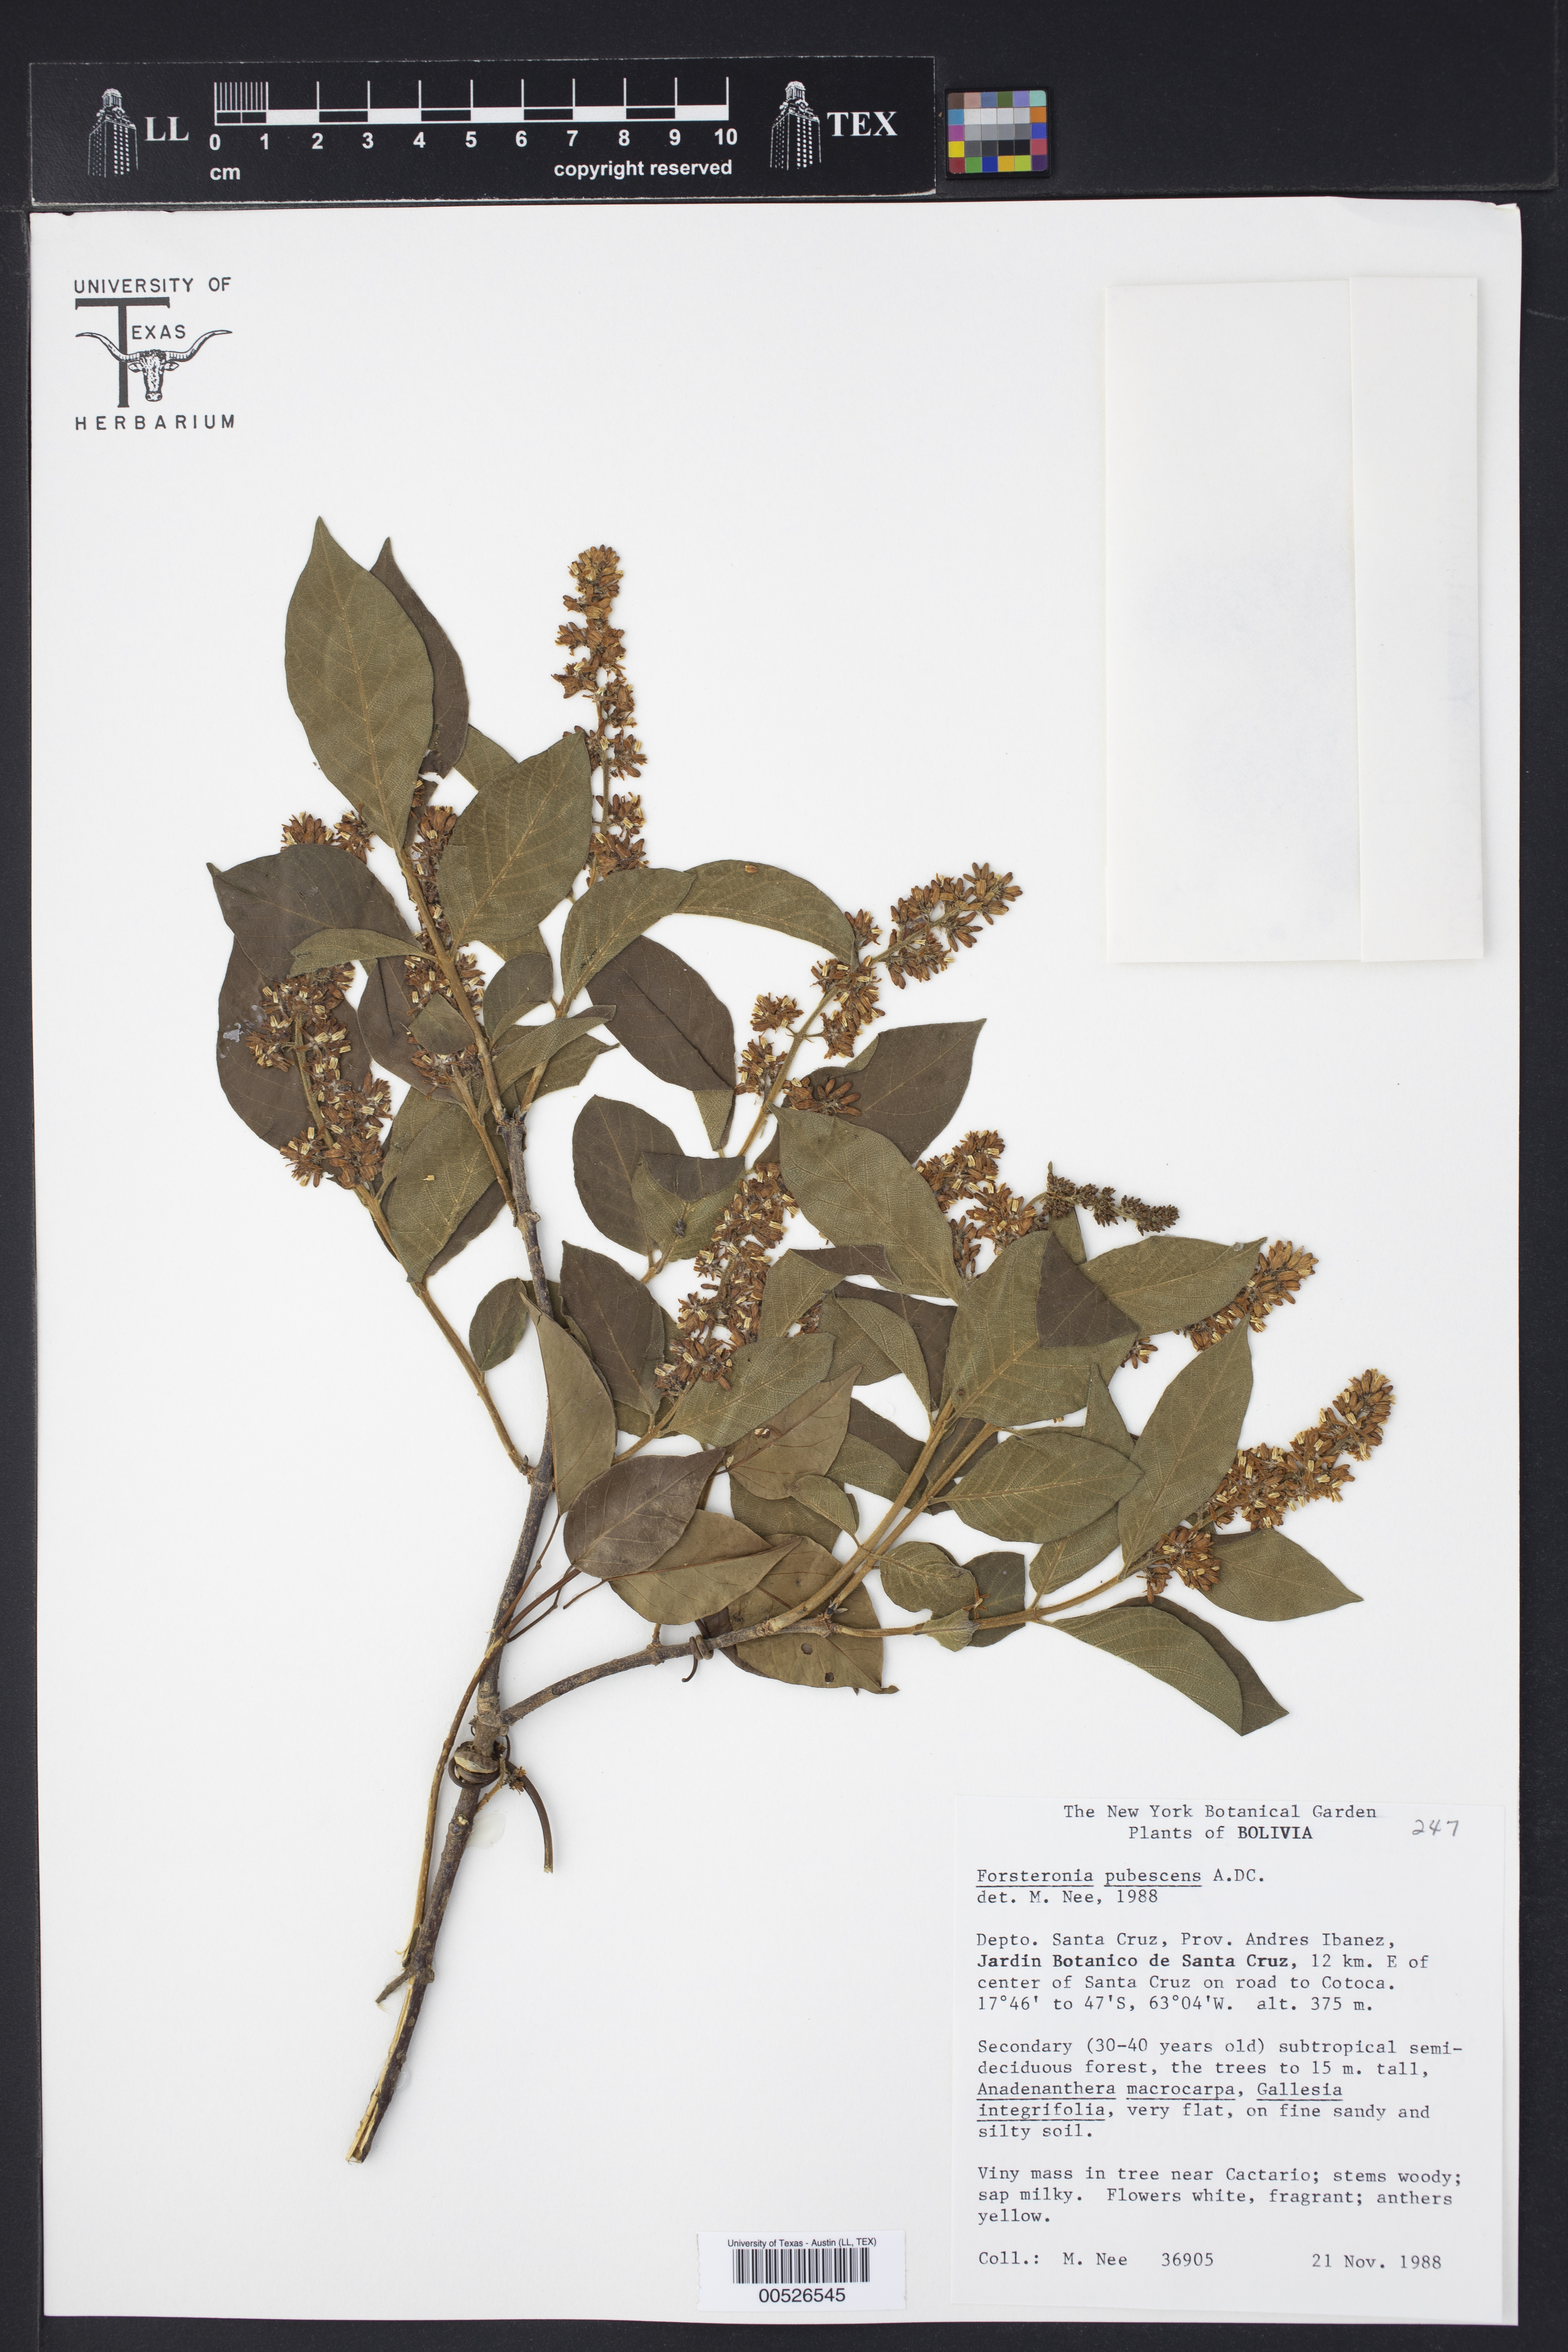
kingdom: Plantae
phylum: Tracheophyta
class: Magnoliopsida
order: Gentianales
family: Apocynaceae
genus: Forsteronia
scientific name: Forsteronia pubescens
